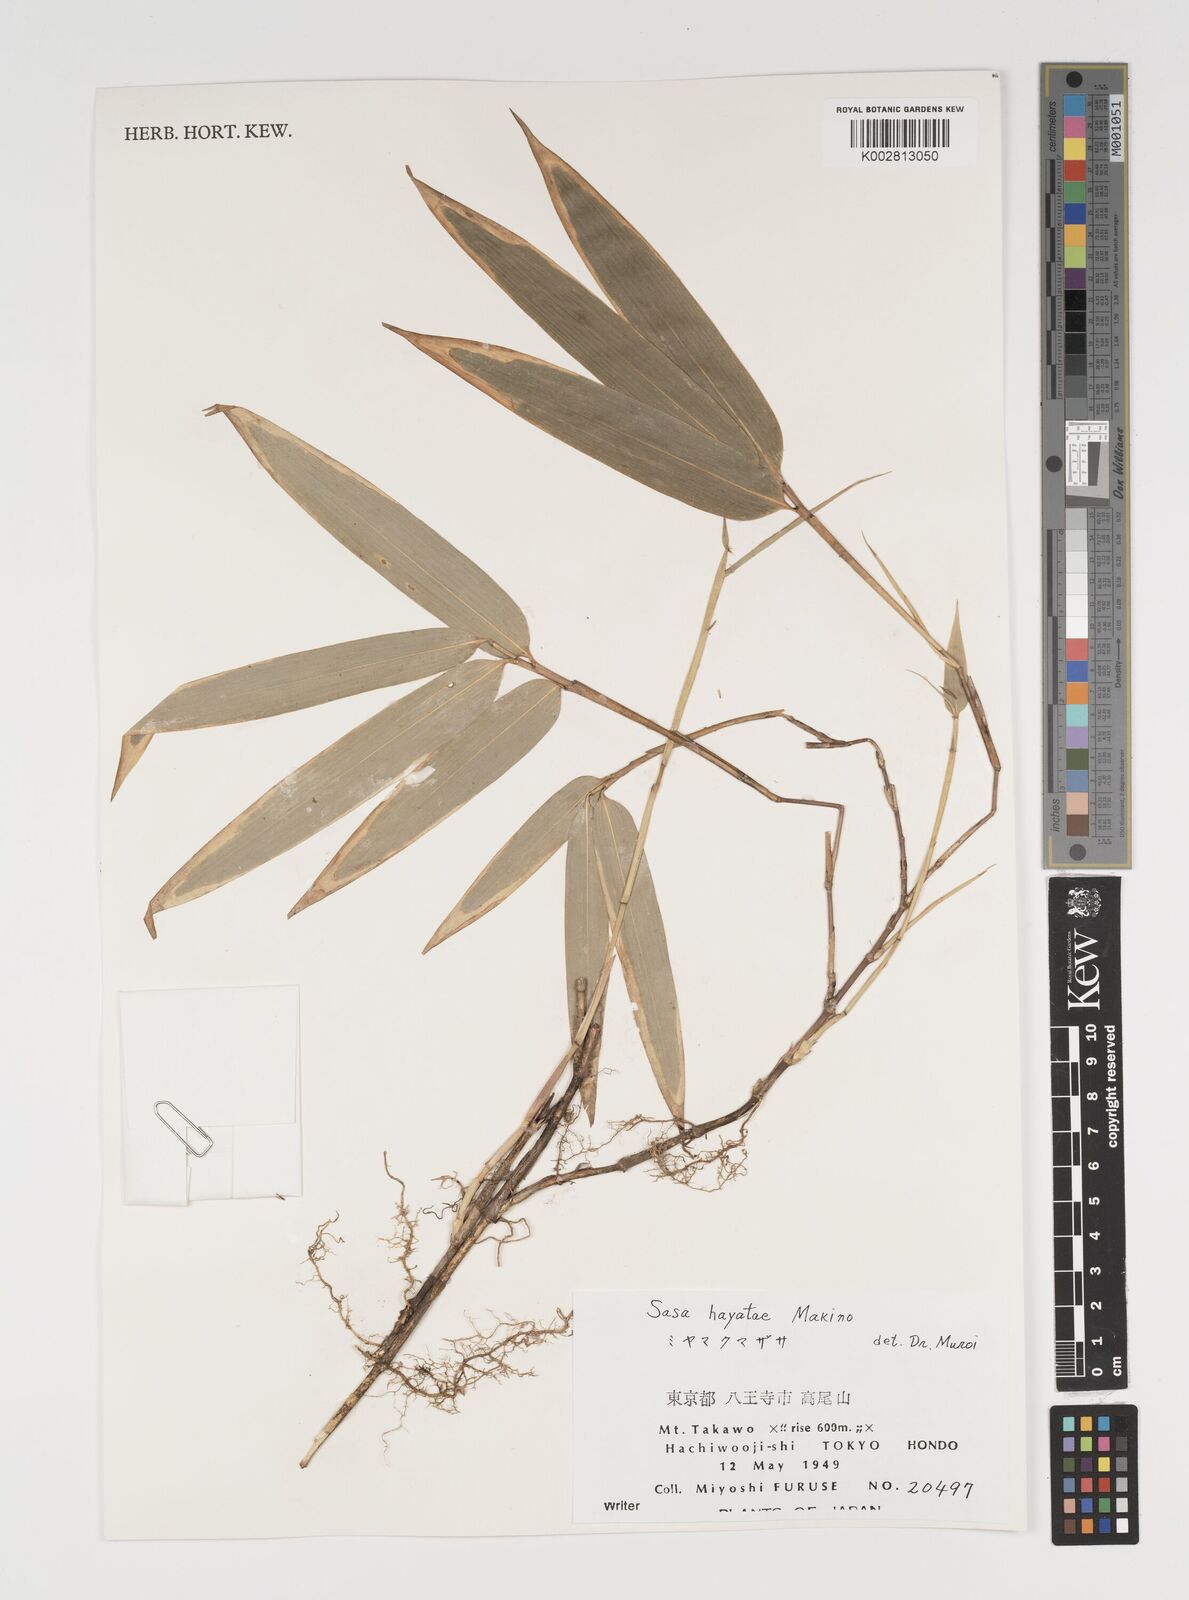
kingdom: Plantae
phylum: Tracheophyta
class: Liliopsida
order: Poales
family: Poaceae
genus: Sasa
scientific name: Sasa hayatae
